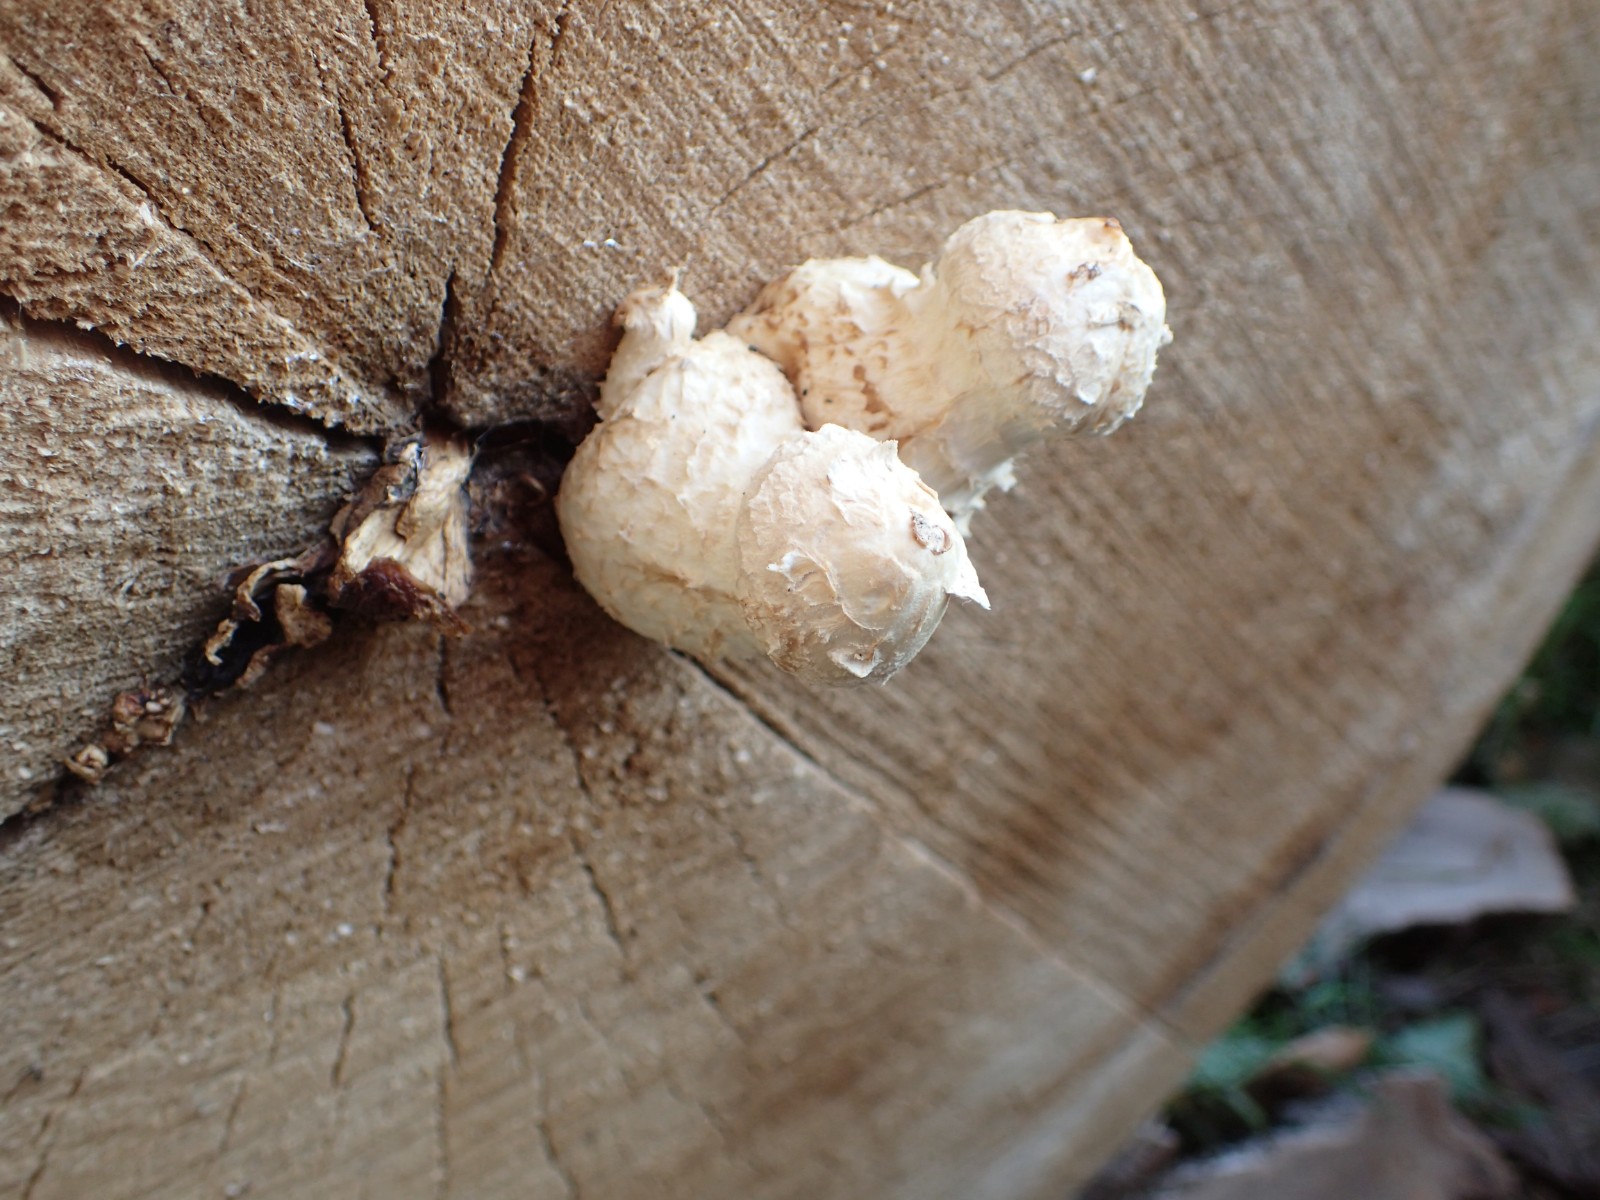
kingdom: Fungi
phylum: Basidiomycota
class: Agaricomycetes
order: Agaricales
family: Strophariaceae
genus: Pholiota
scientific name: Pholiota populnea
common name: poppel-kæmpeskælhat
